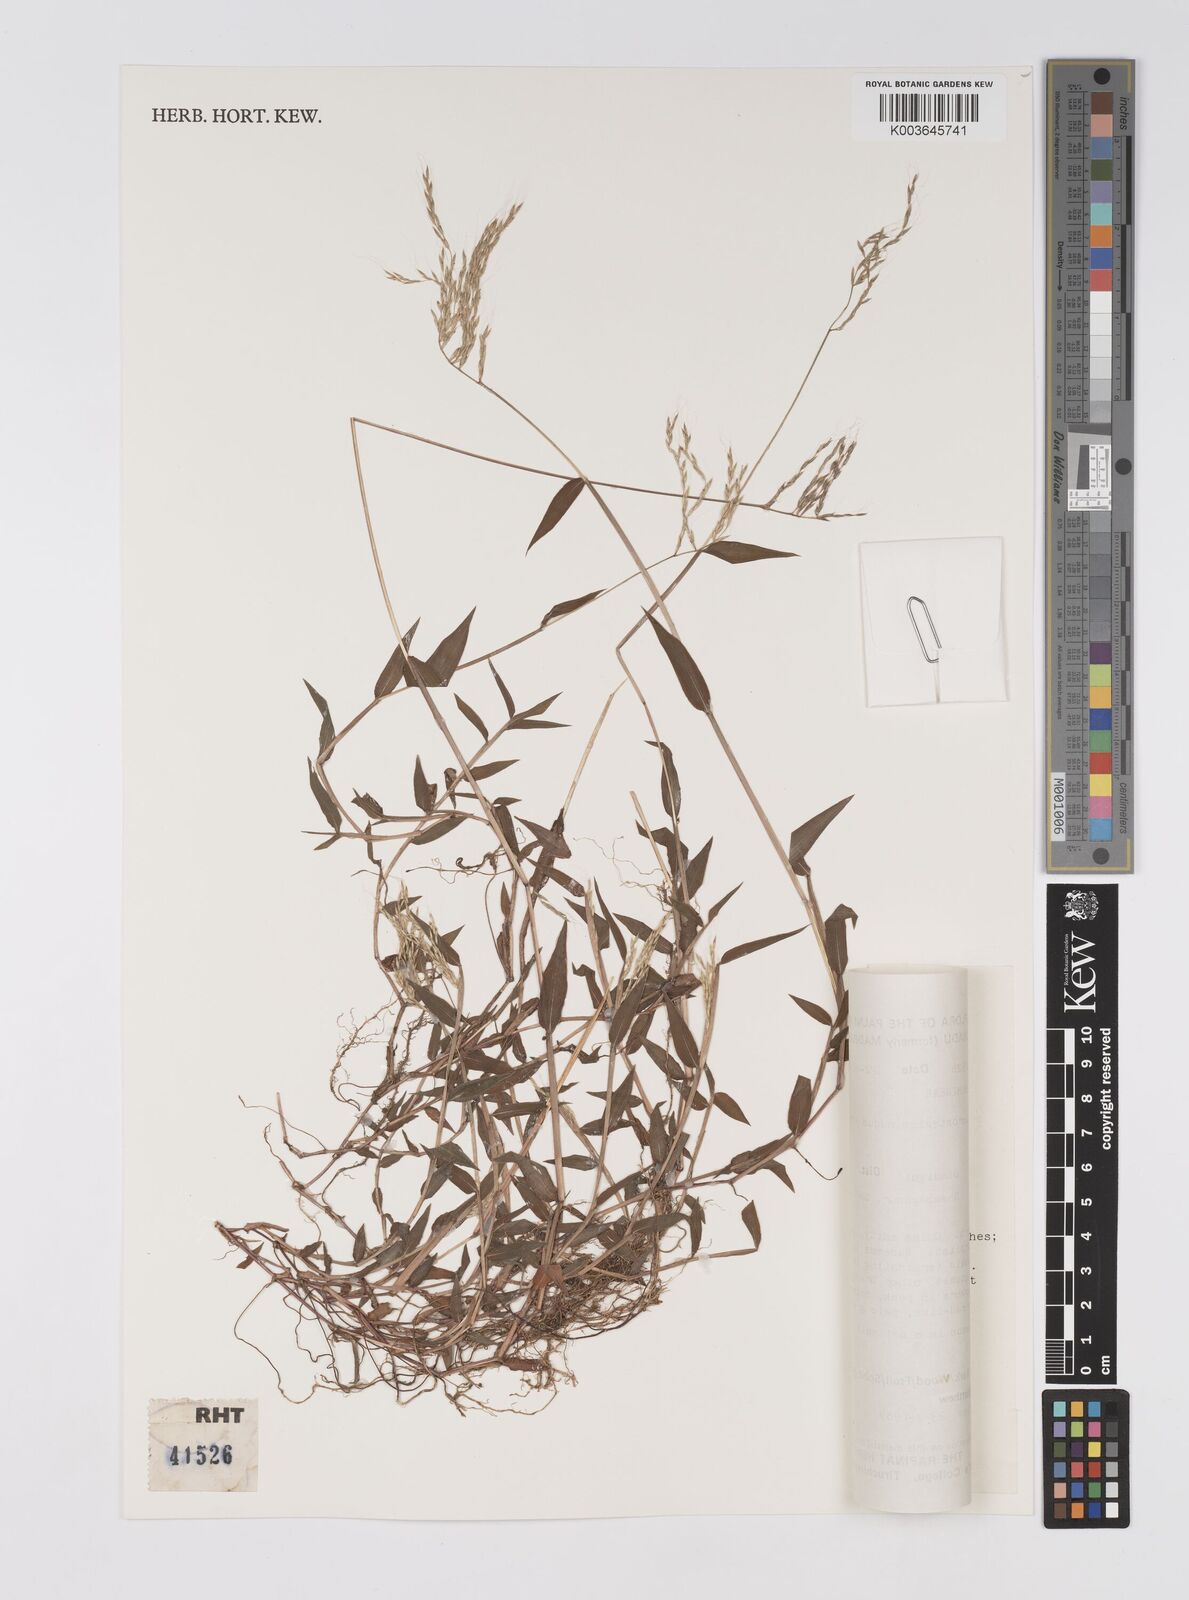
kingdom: Plantae
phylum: Tracheophyta
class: Liliopsida
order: Poales
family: Poaceae
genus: Microstegium
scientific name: Microstegium nudum
